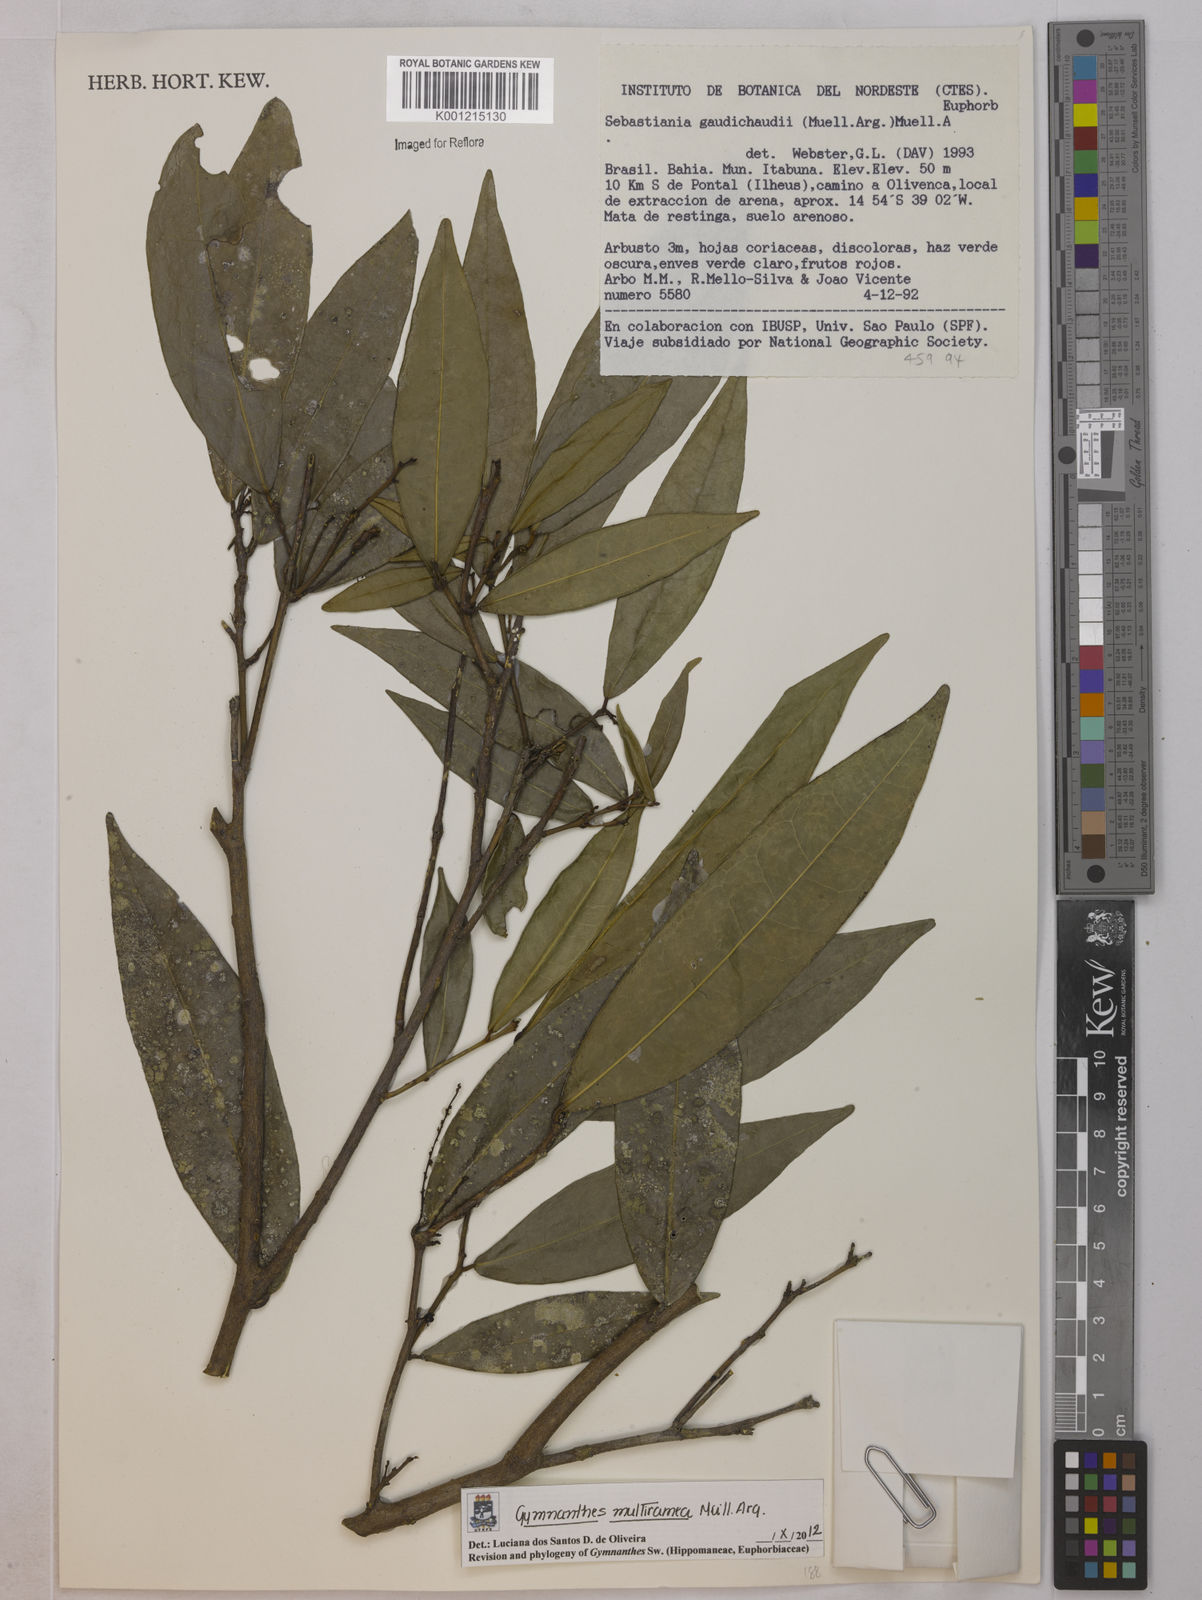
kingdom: Plantae
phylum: Tracheophyta
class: Magnoliopsida
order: Malpighiales
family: Euphorbiaceae
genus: Gymnanthes
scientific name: Gymnanthes
